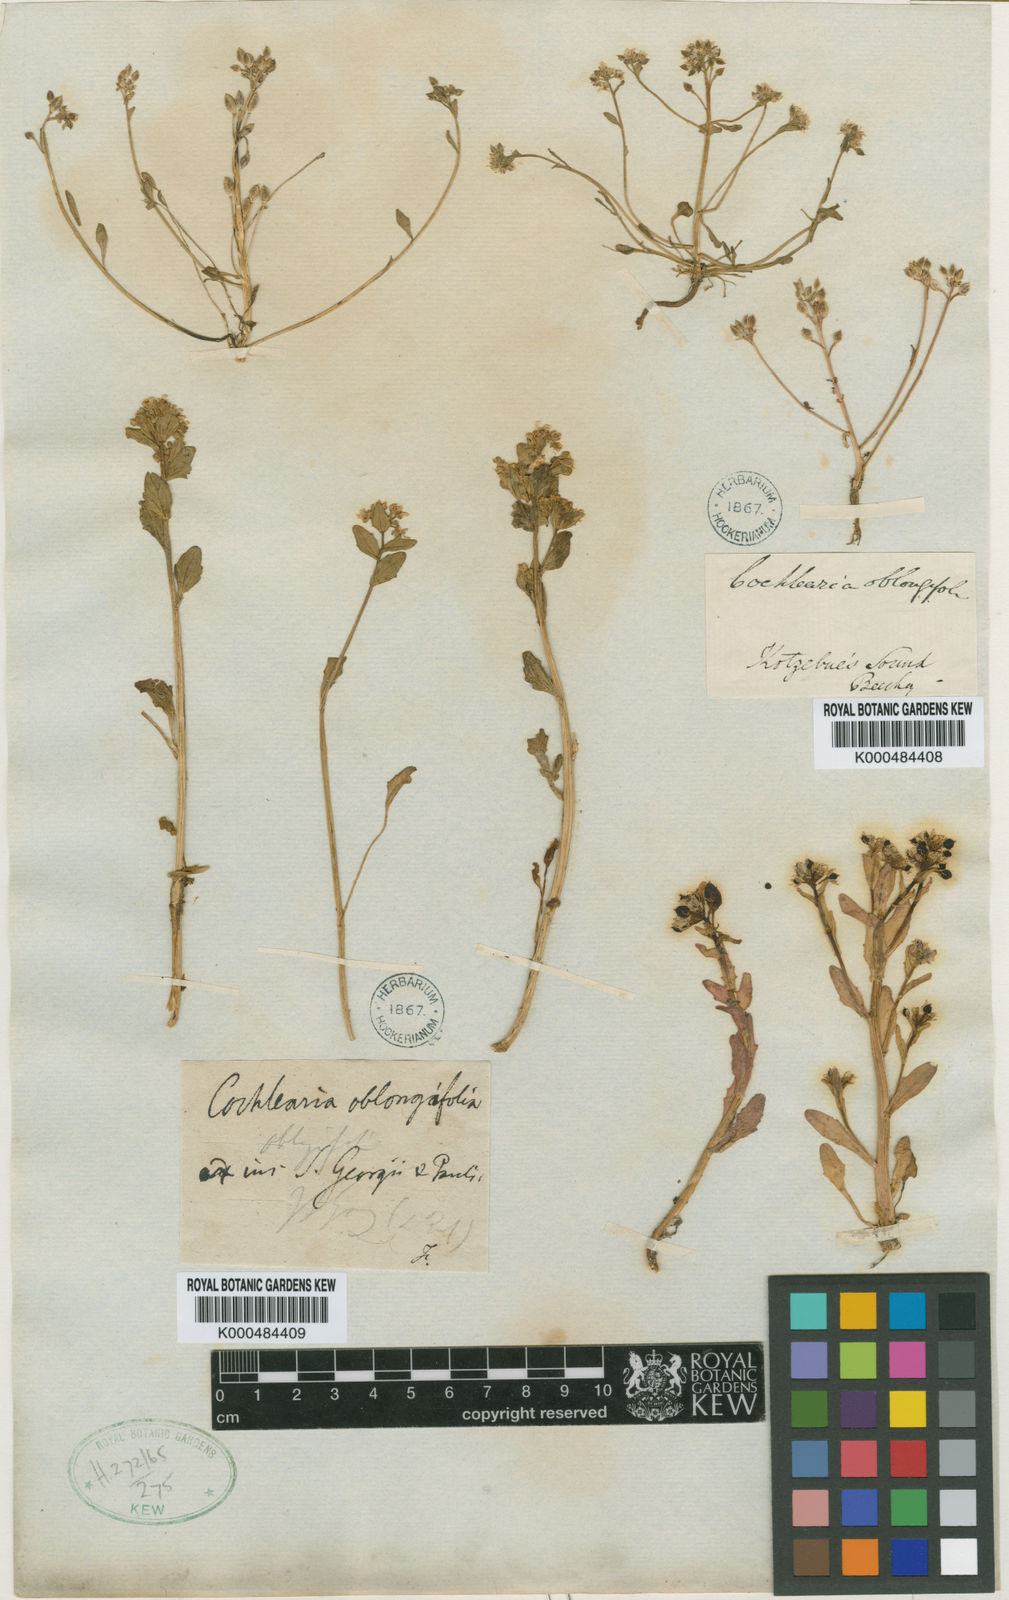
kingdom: Plantae
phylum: Tracheophyta
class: Magnoliopsida
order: Brassicales
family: Brassicaceae
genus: Cochlearia
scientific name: Cochlearia groenlandica
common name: Danish scurvygrass
